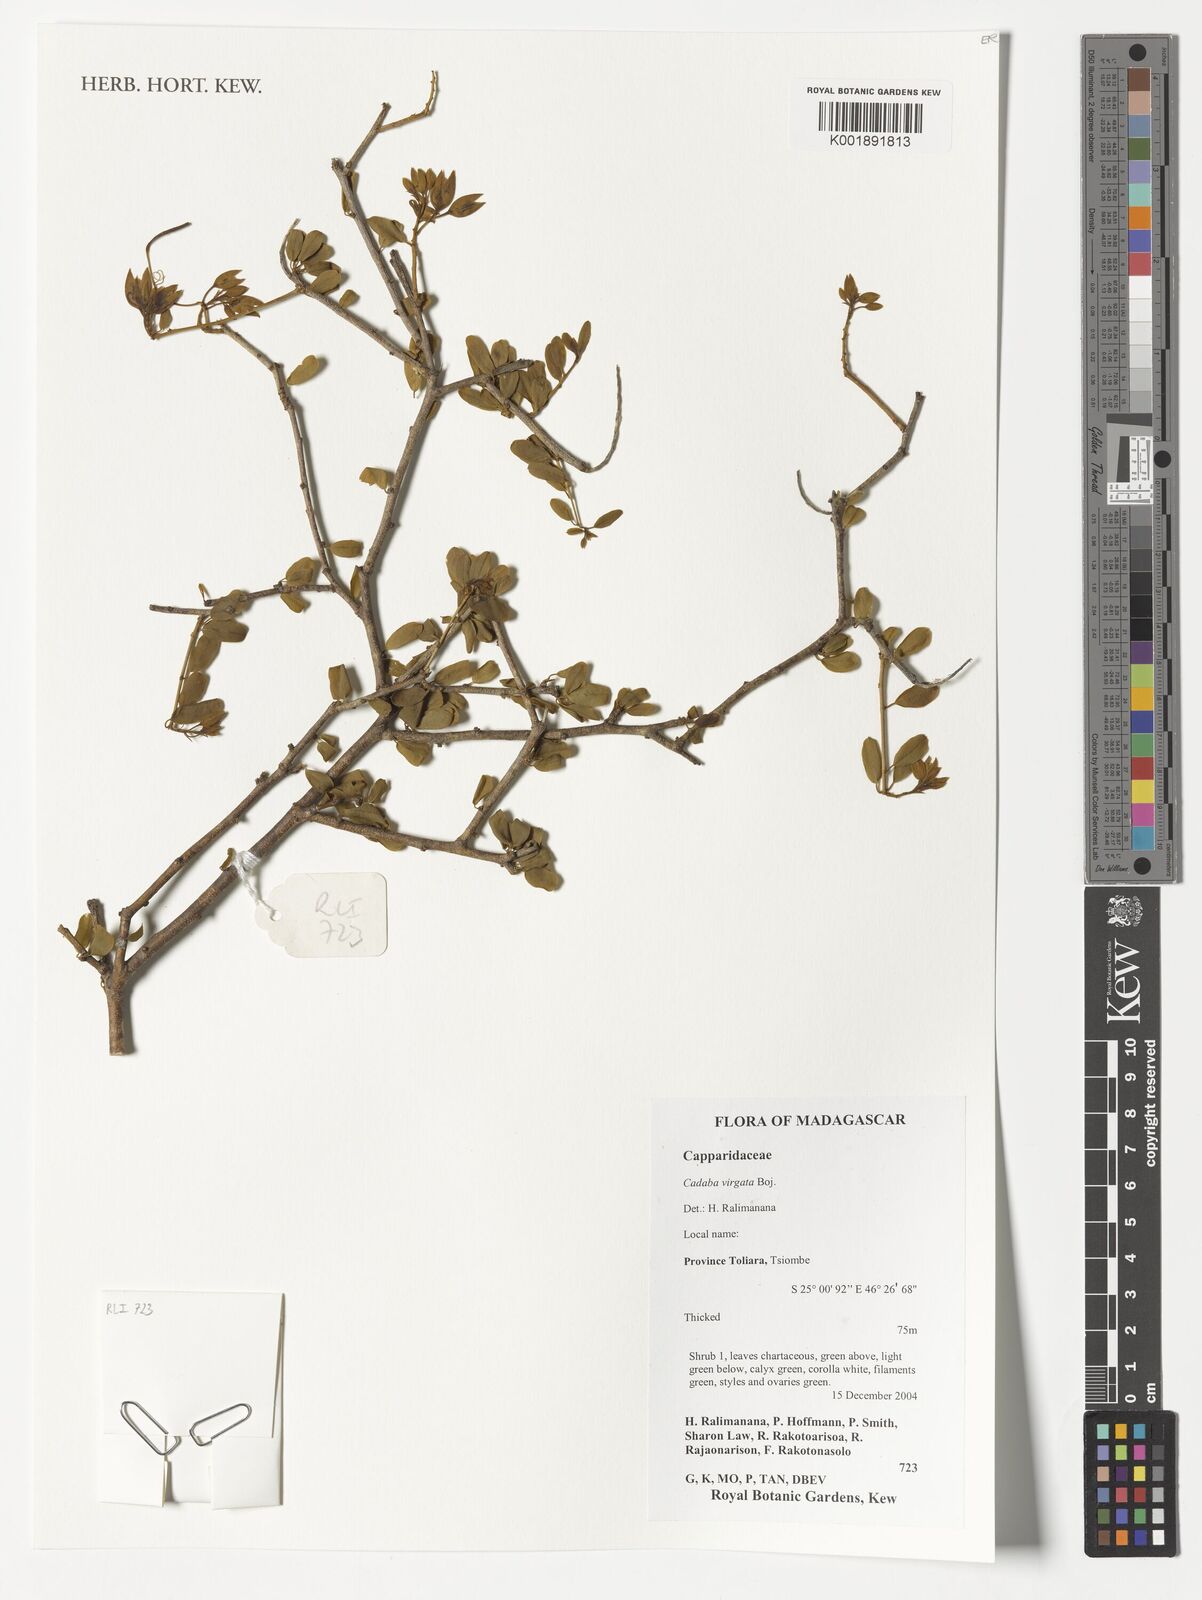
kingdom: Plantae
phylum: Tracheophyta
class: Magnoliopsida
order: Brassicales
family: Capparaceae
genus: Cadaba
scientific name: Cadaba virgata
